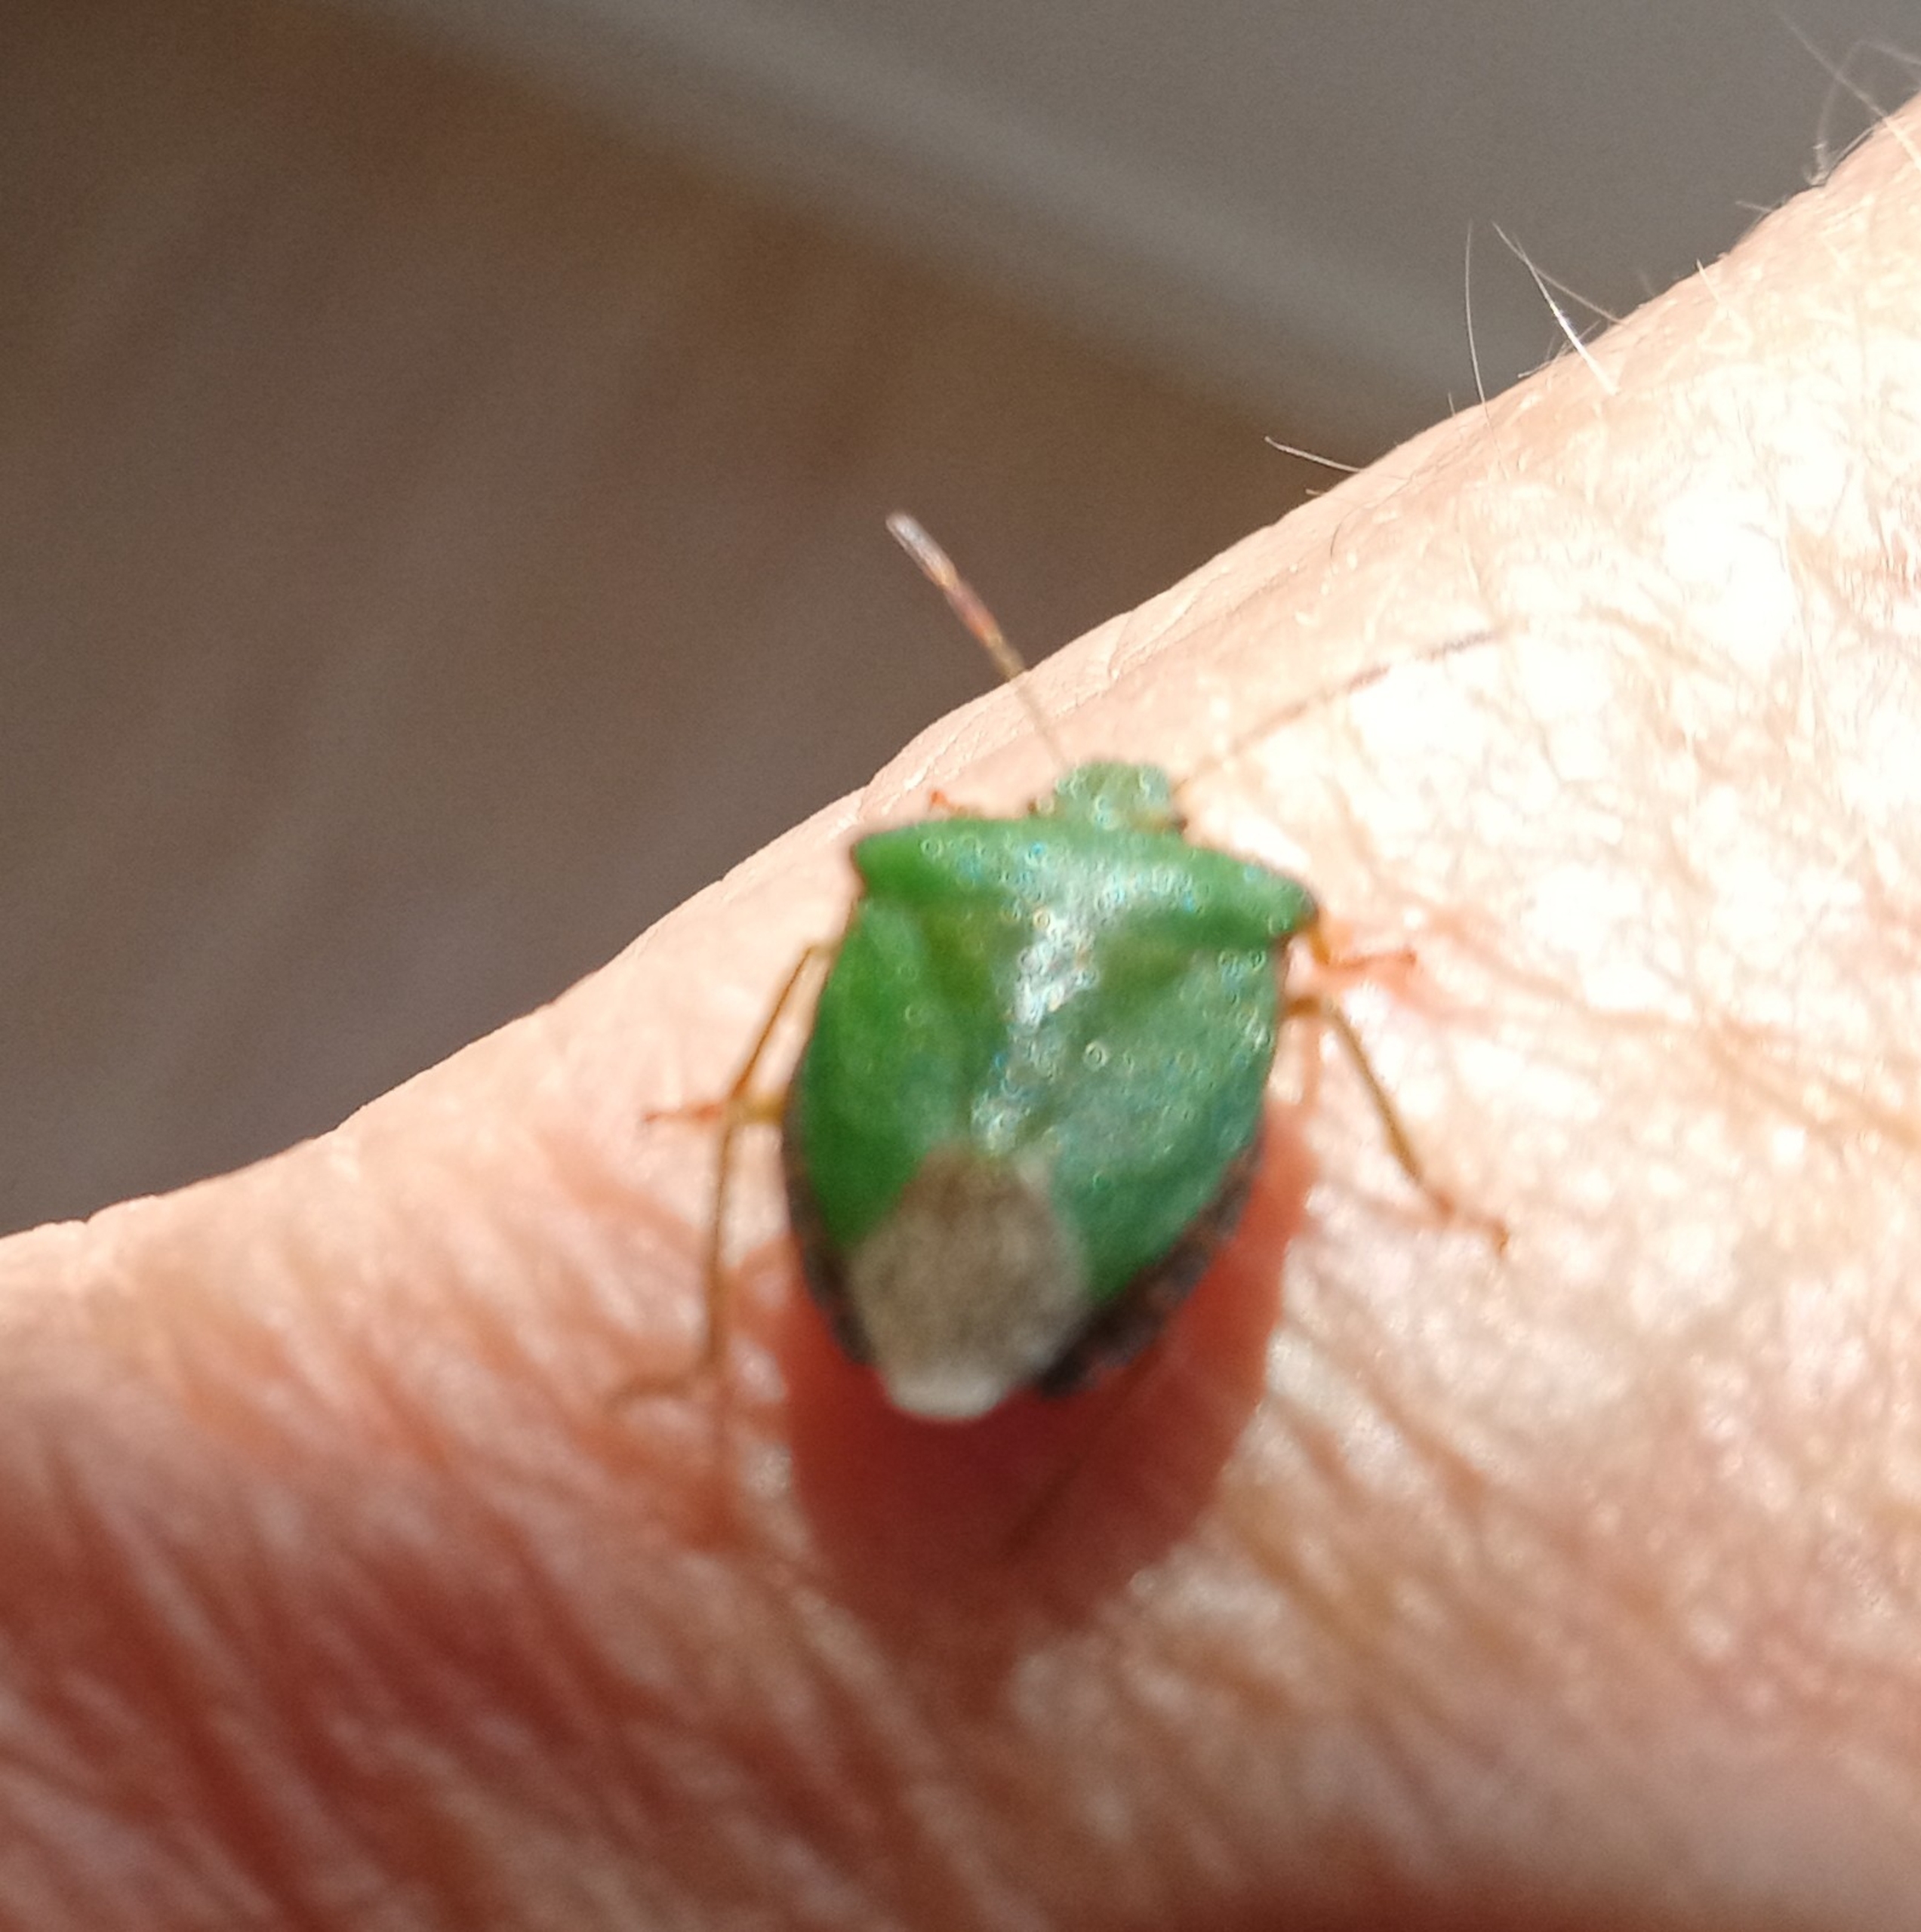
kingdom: Animalia
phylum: Arthropoda
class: Insecta
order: Hemiptera
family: Pentatomidae
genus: Palomena
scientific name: Palomena prasina
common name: Grøn bredtæge
